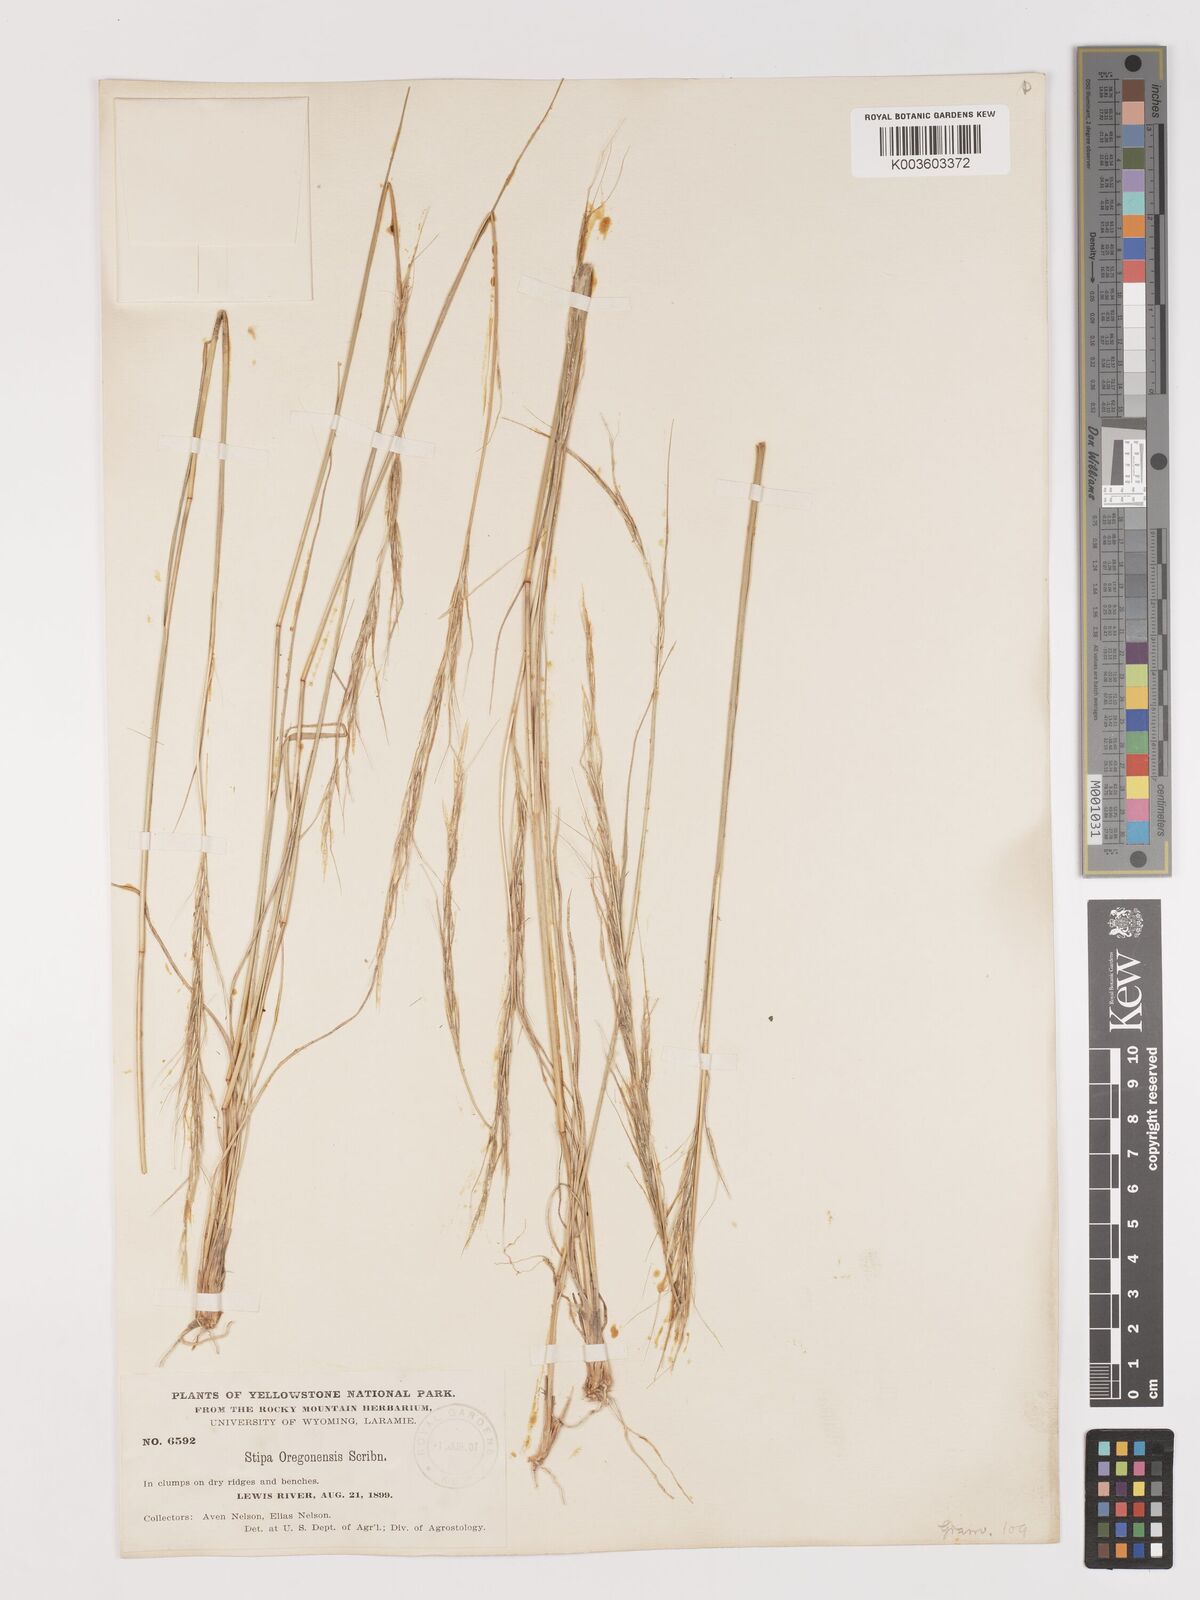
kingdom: Plantae
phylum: Tracheophyta
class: Liliopsida
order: Poales
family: Poaceae
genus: Eriocoma
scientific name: Eriocoma thurberiana
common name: Thurber's needlegrass
